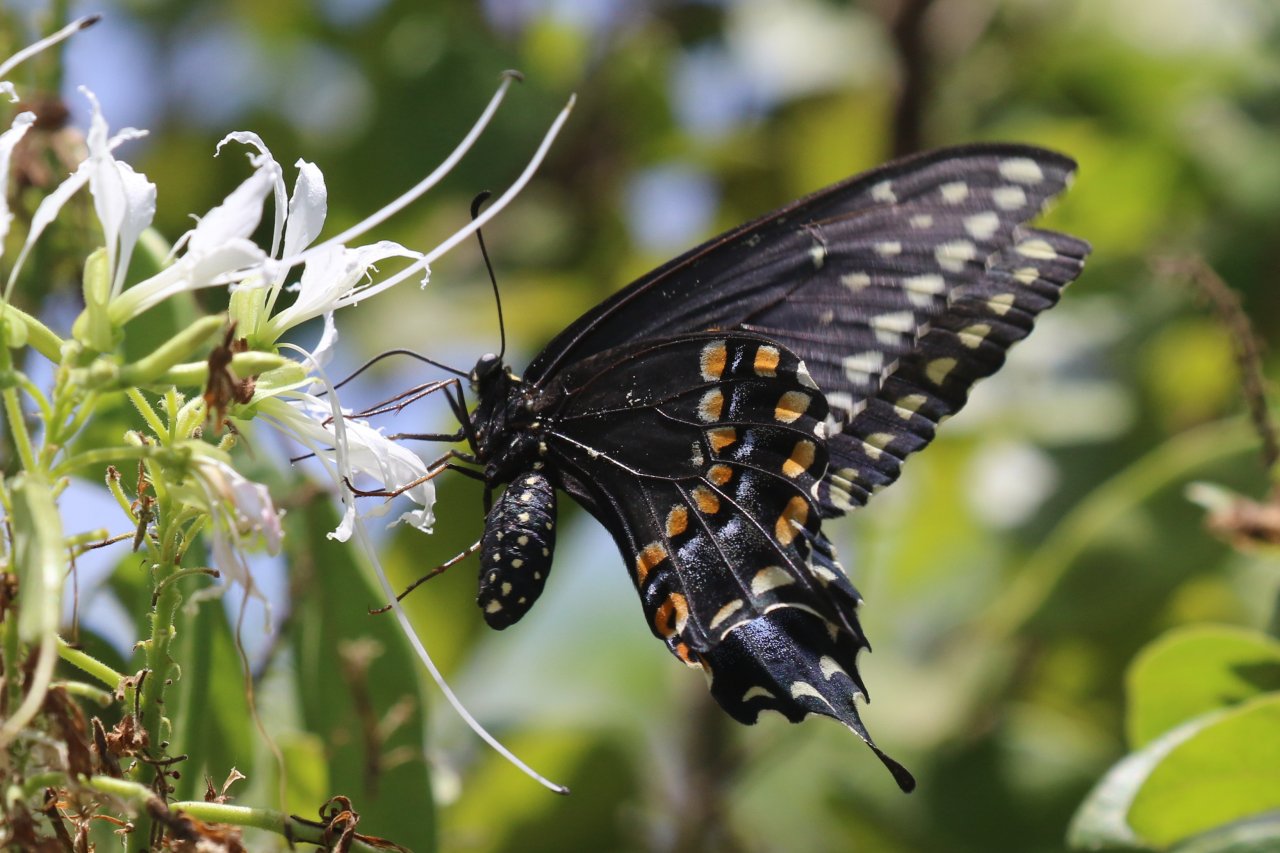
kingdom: Animalia
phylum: Arthropoda
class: Insecta
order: Lepidoptera
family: Papilionidae
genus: Papilio
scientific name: Papilio polyxenes
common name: Black Swallowtail
